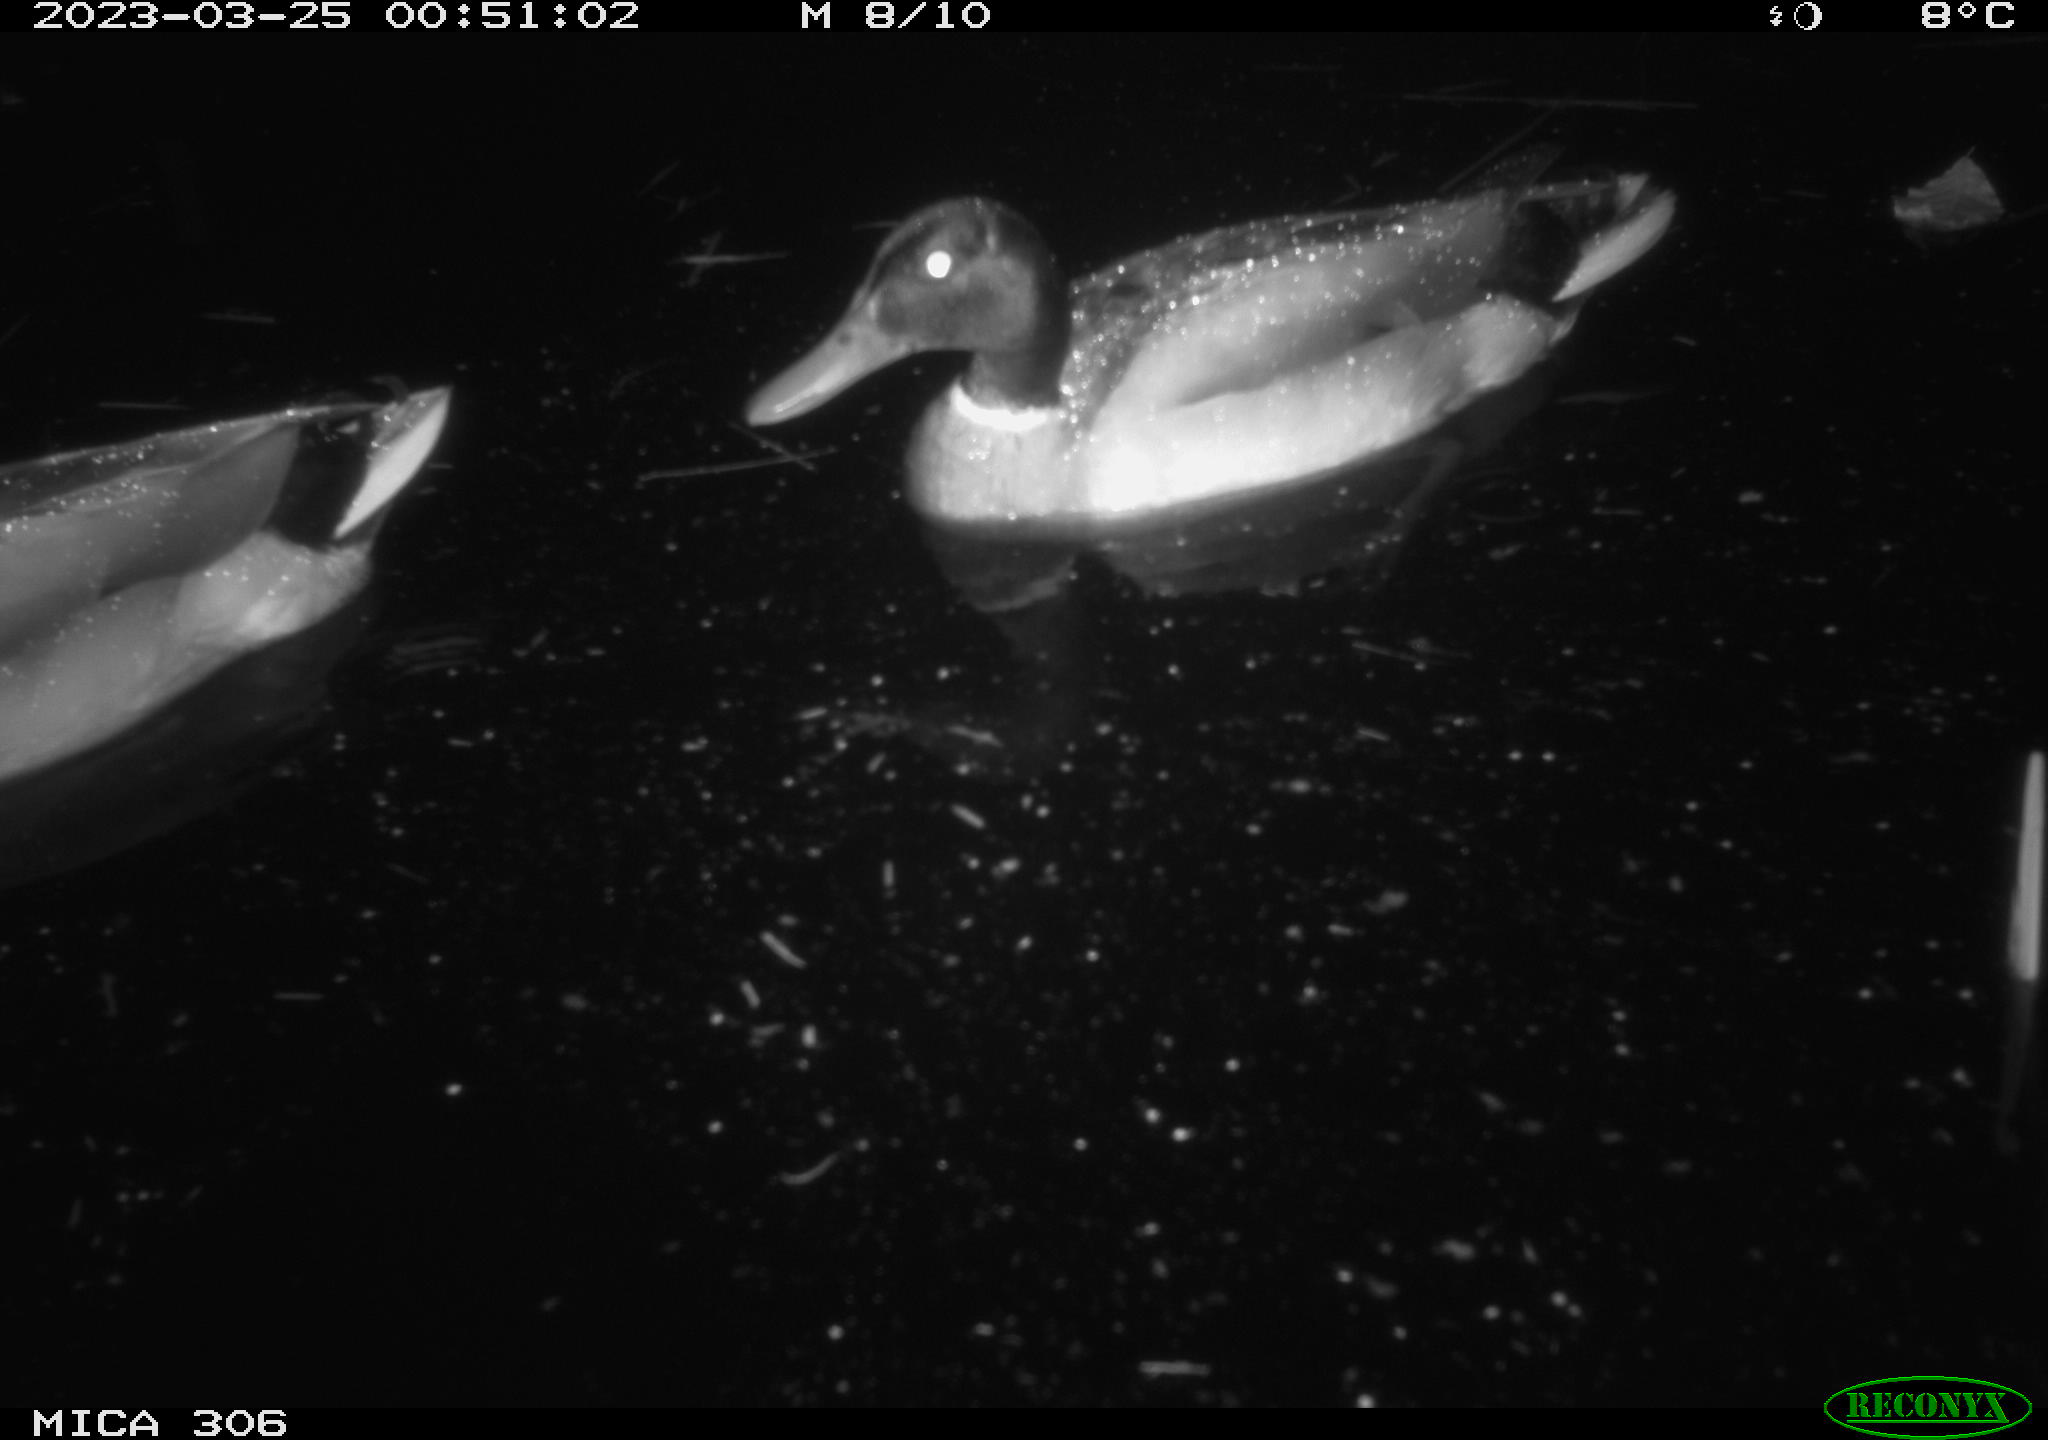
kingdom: Animalia
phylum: Chordata
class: Aves
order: Anseriformes
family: Anatidae
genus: Anas
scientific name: Anas
